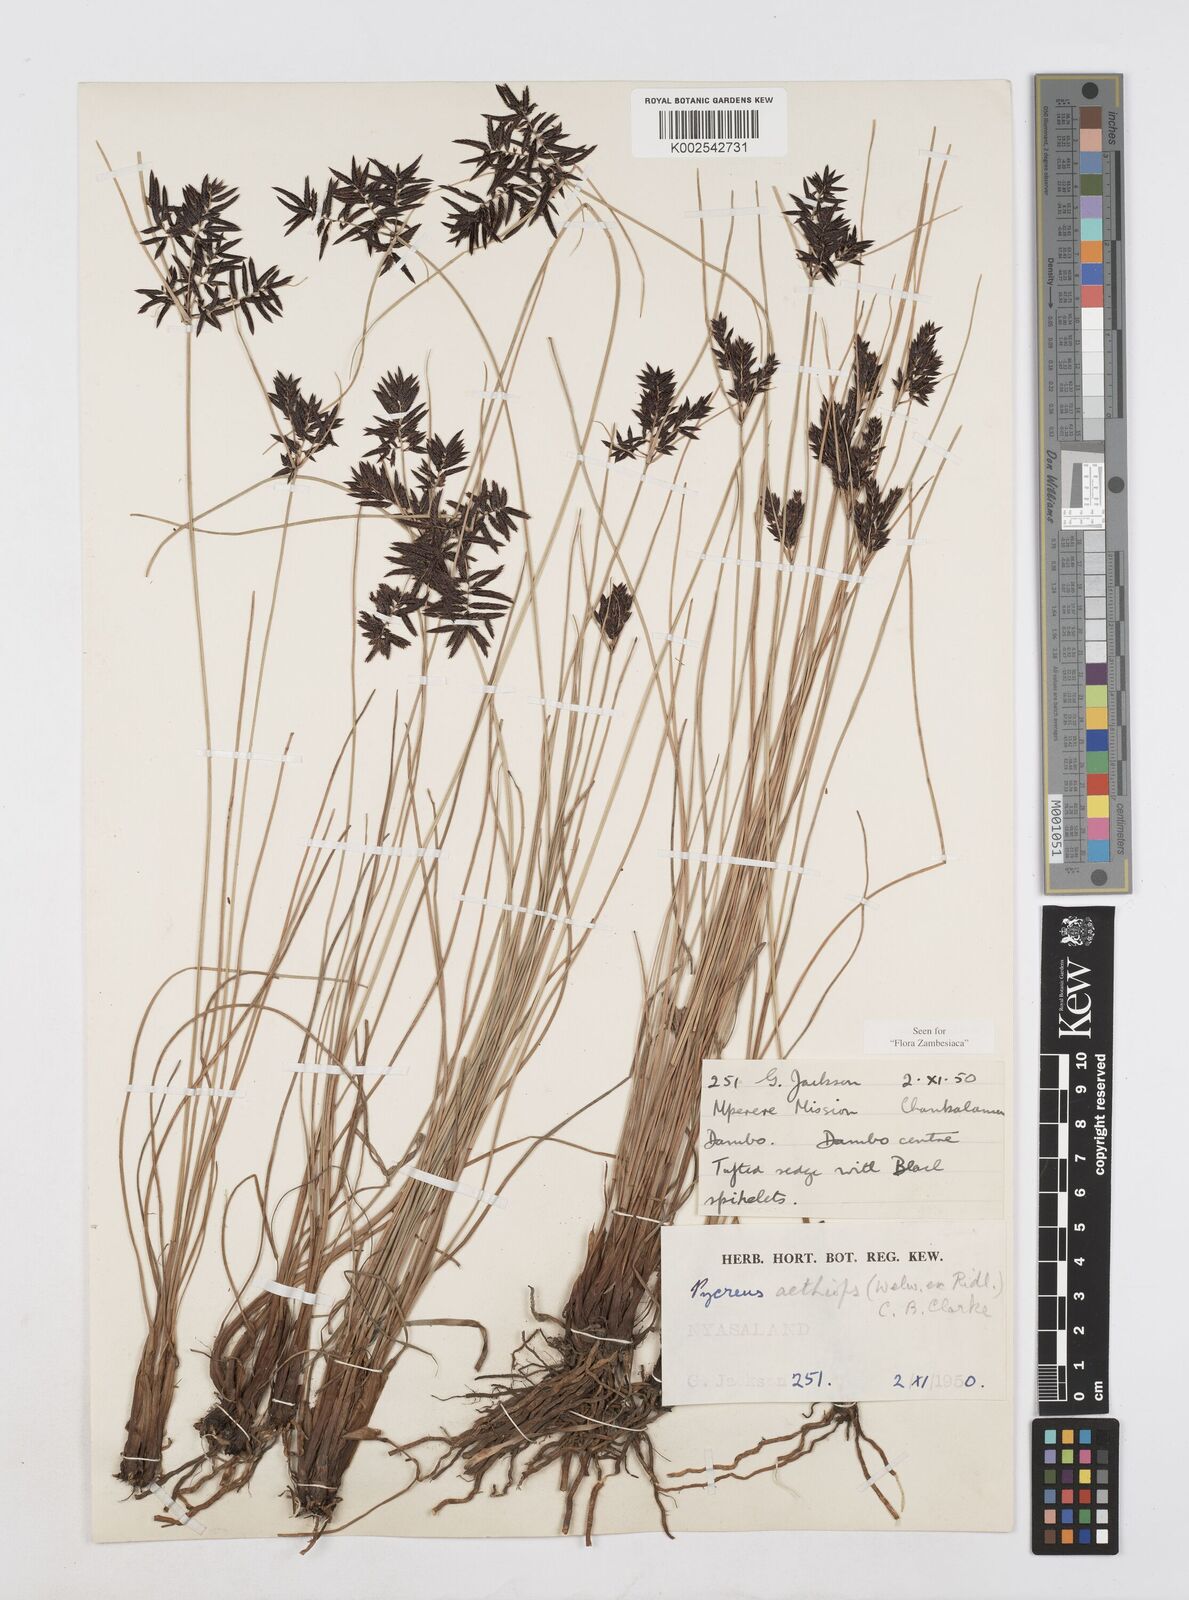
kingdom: Plantae
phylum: Tracheophyta
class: Liliopsida
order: Poales
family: Cyperaceae
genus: Cyperus
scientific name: Cyperus aethiops
